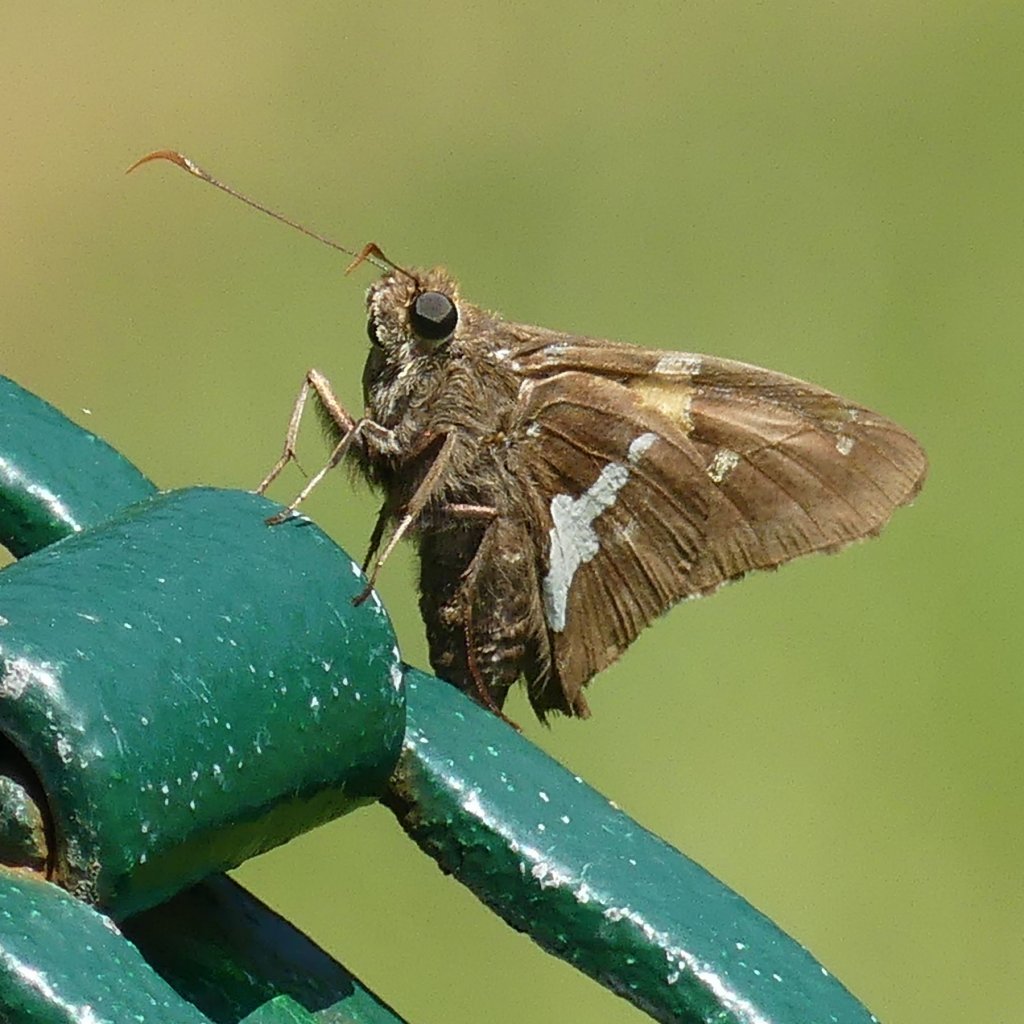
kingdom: Animalia
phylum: Arthropoda
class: Insecta
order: Lepidoptera
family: Hesperiidae
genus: Epargyreus
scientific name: Epargyreus clarus
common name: Silver-spotted Skipper
